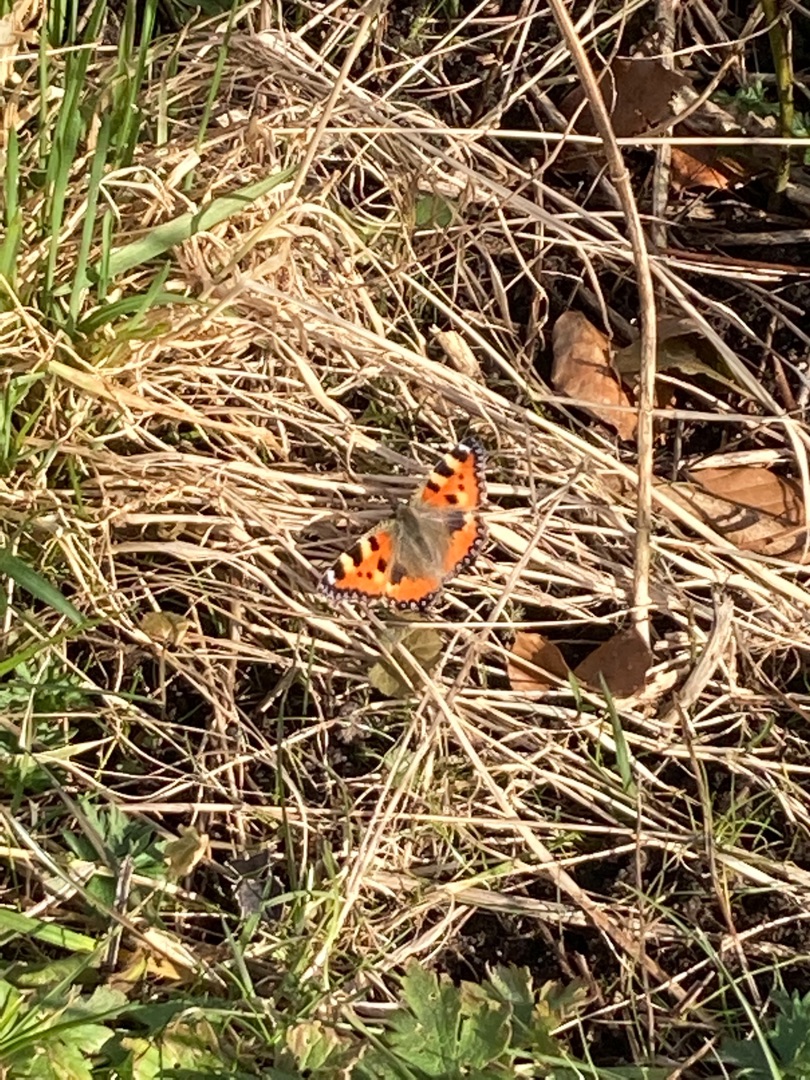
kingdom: Animalia
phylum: Arthropoda
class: Insecta
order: Lepidoptera
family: Nymphalidae
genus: Aglais
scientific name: Aglais urticae
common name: Nældens takvinge
